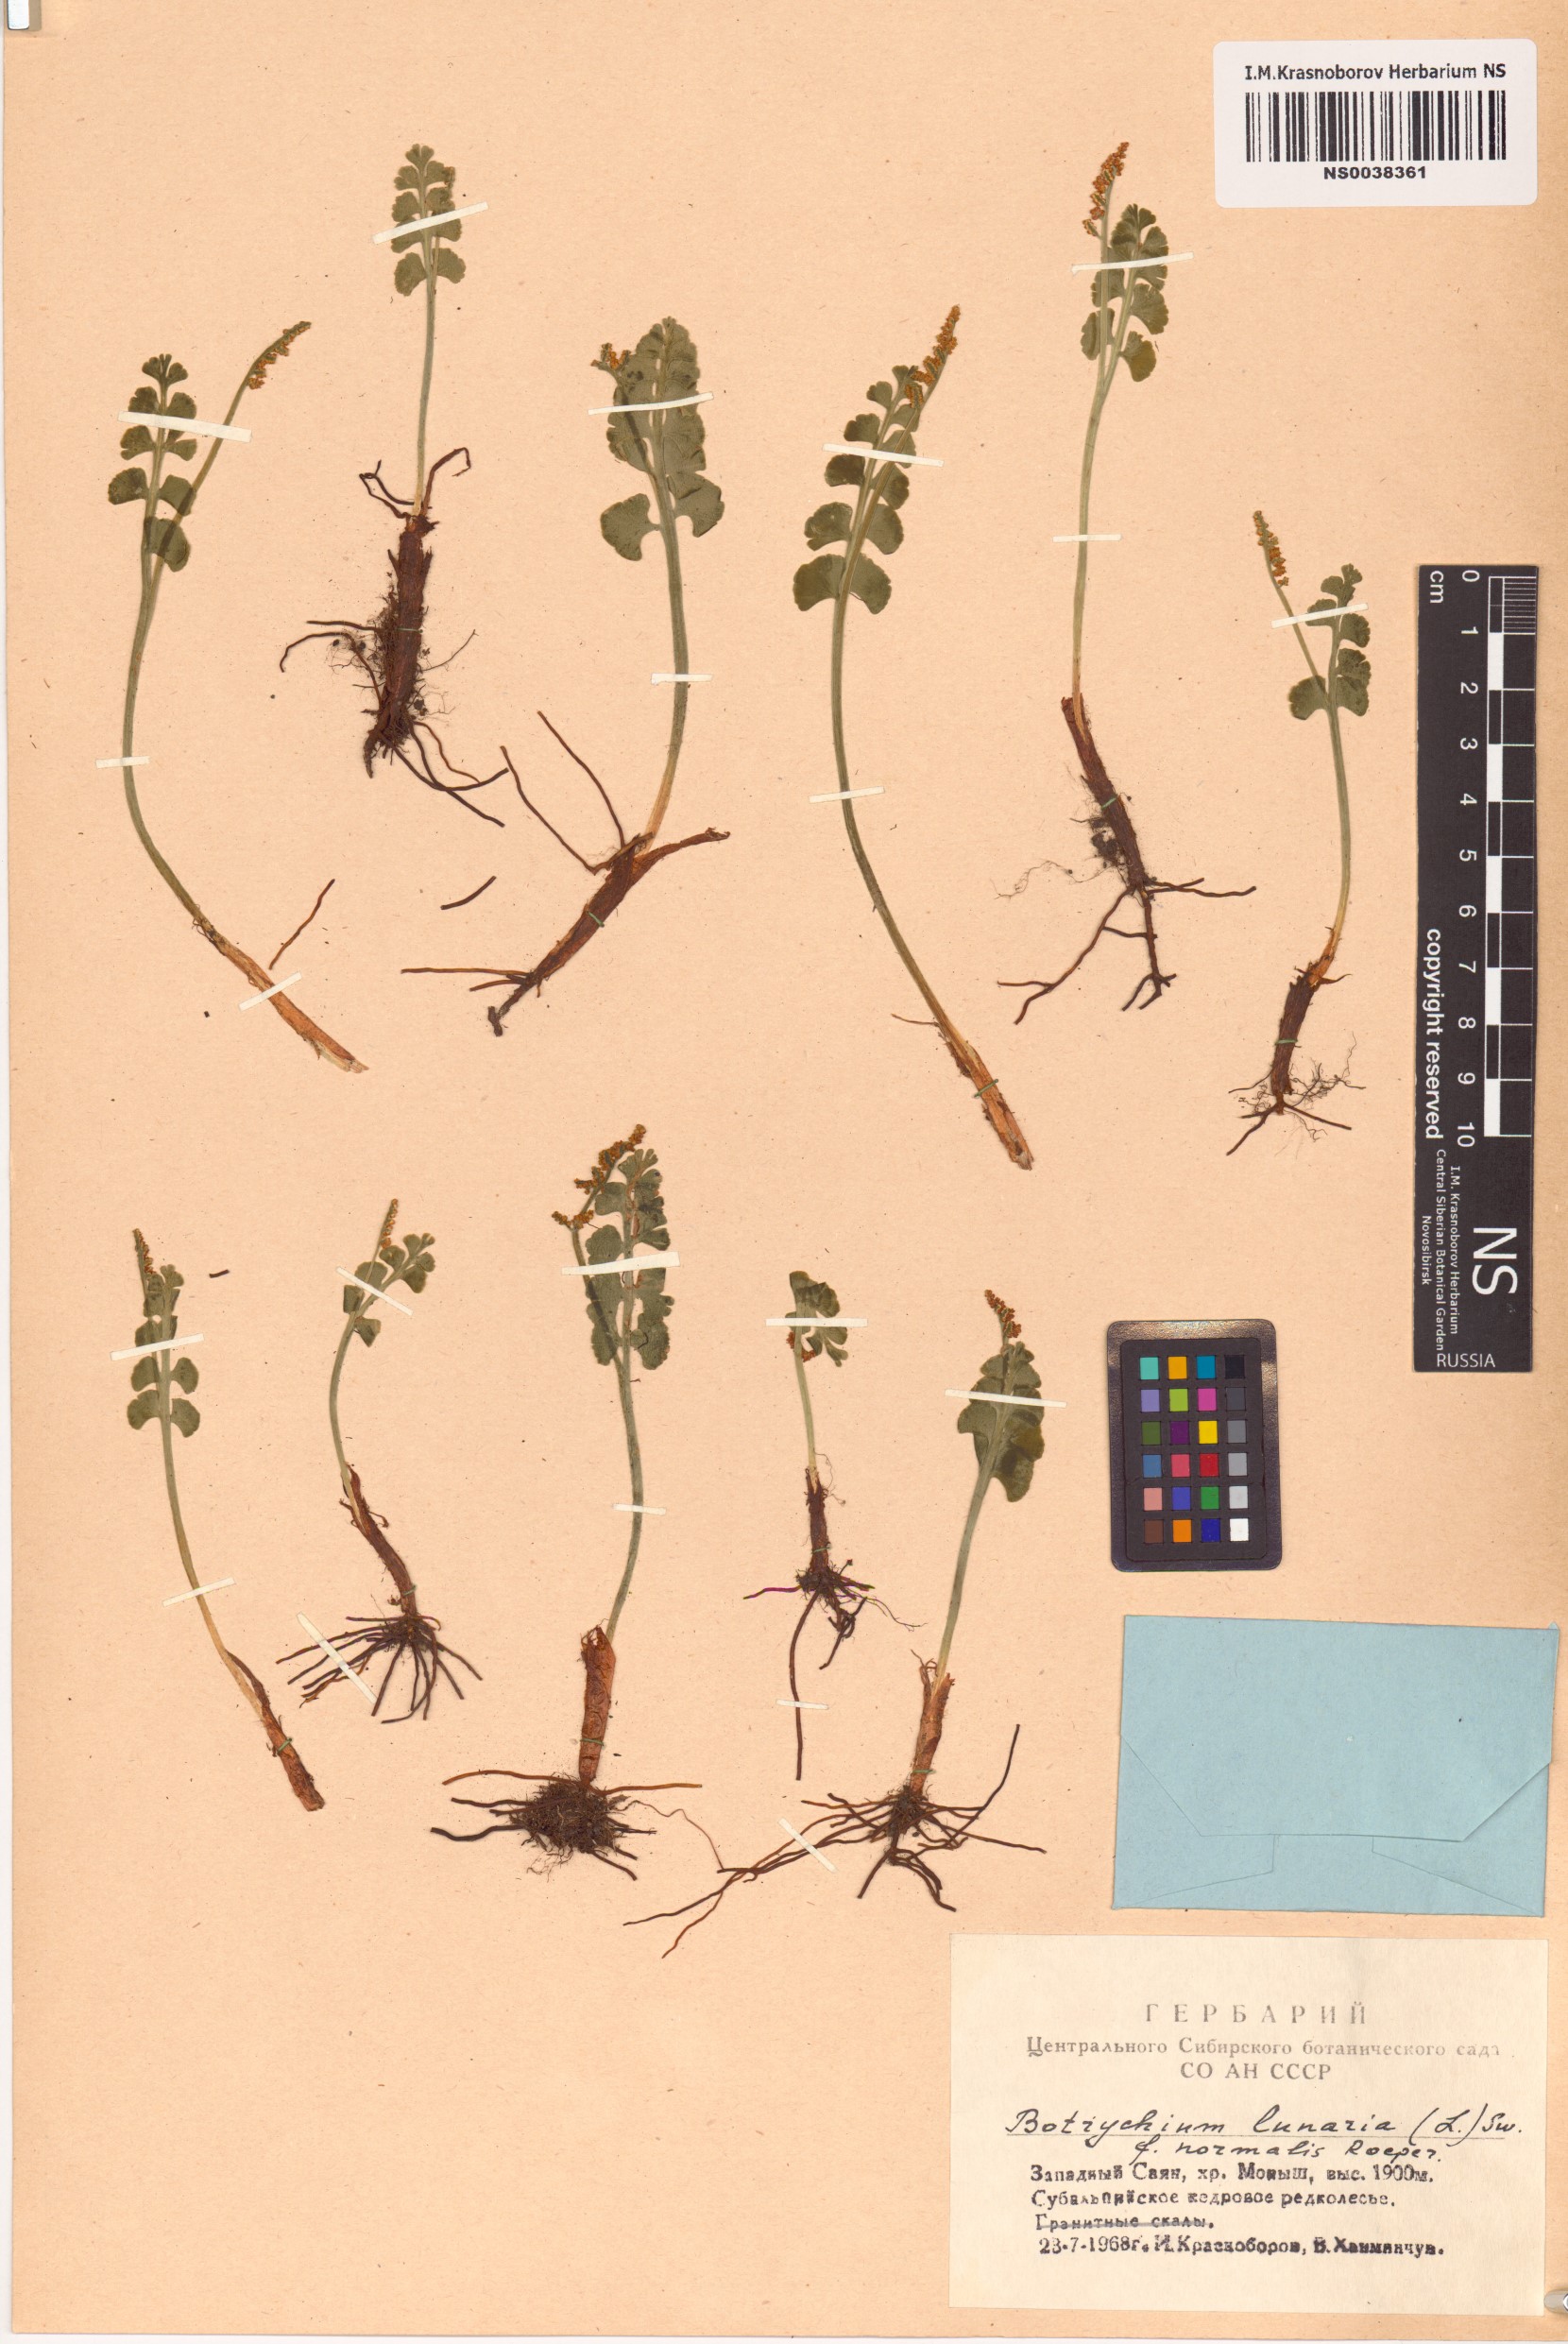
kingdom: Plantae
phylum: Tracheophyta
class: Polypodiopsida
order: Ophioglossales
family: Ophioglossaceae
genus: Botrychium
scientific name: Botrychium lunaria
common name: Moonwort
